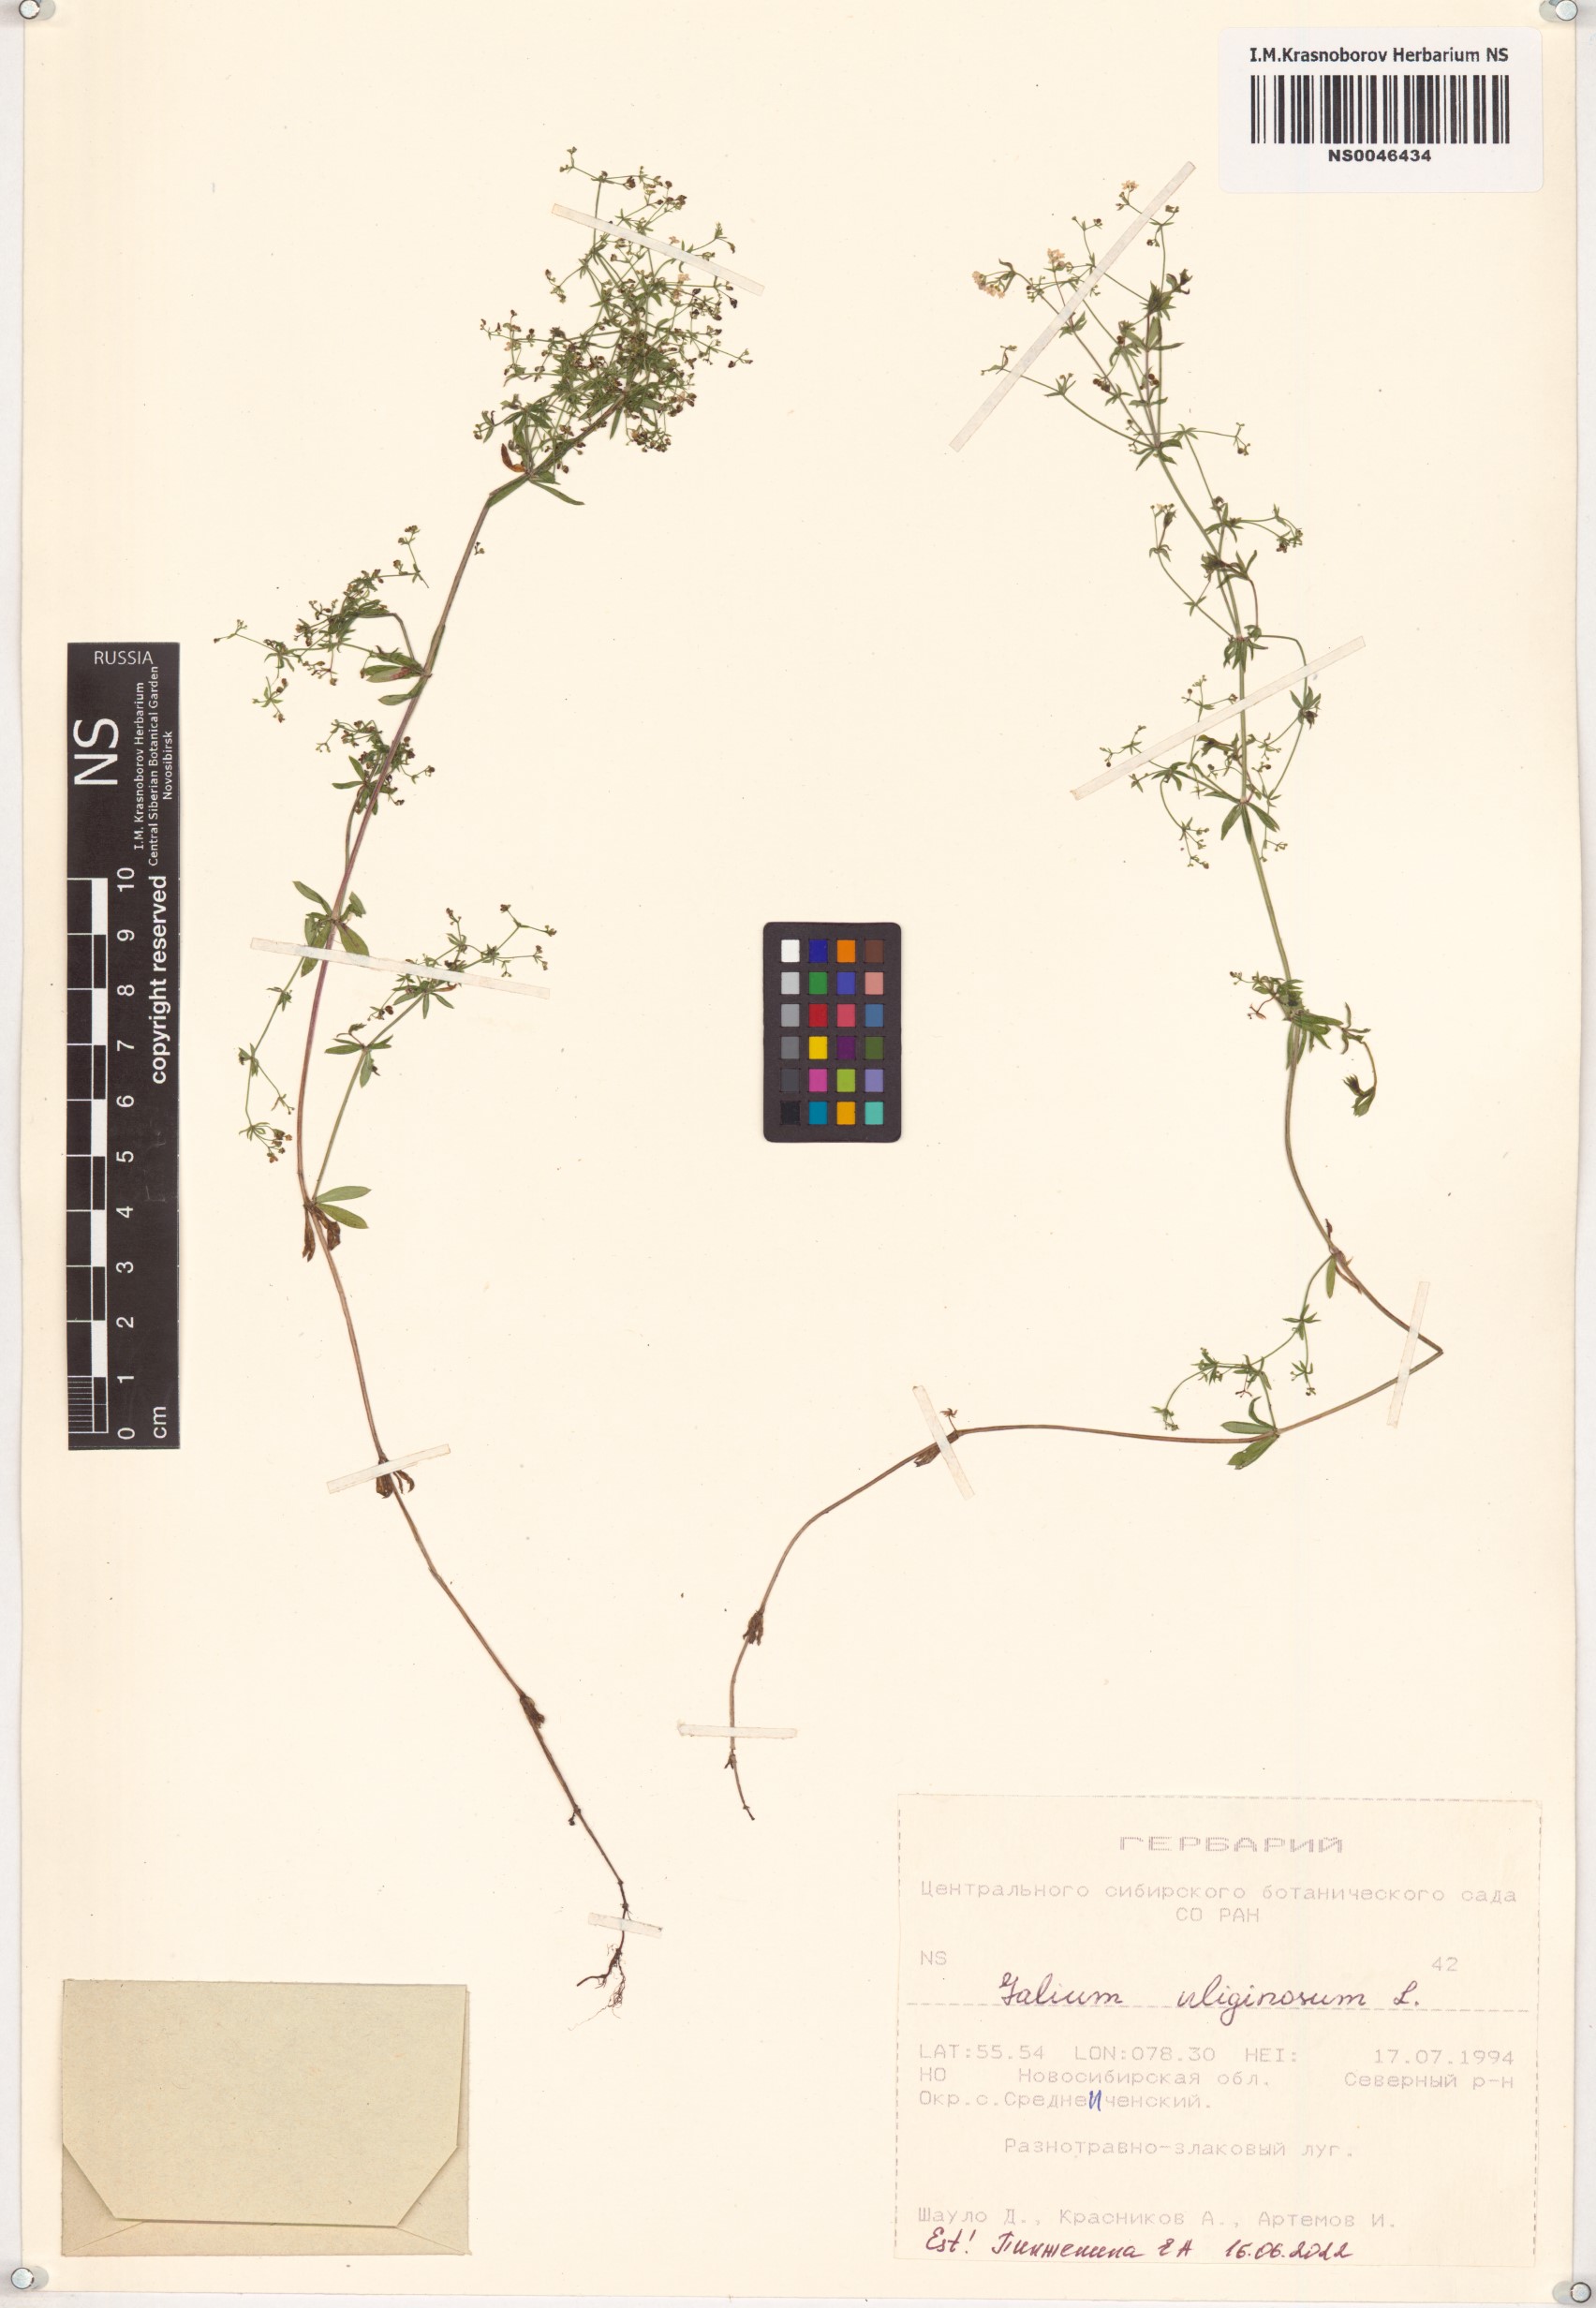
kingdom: Plantae
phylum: Tracheophyta
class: Magnoliopsida
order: Gentianales
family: Rubiaceae
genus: Galium
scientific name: Galium uliginosum
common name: Fen bedstraw
